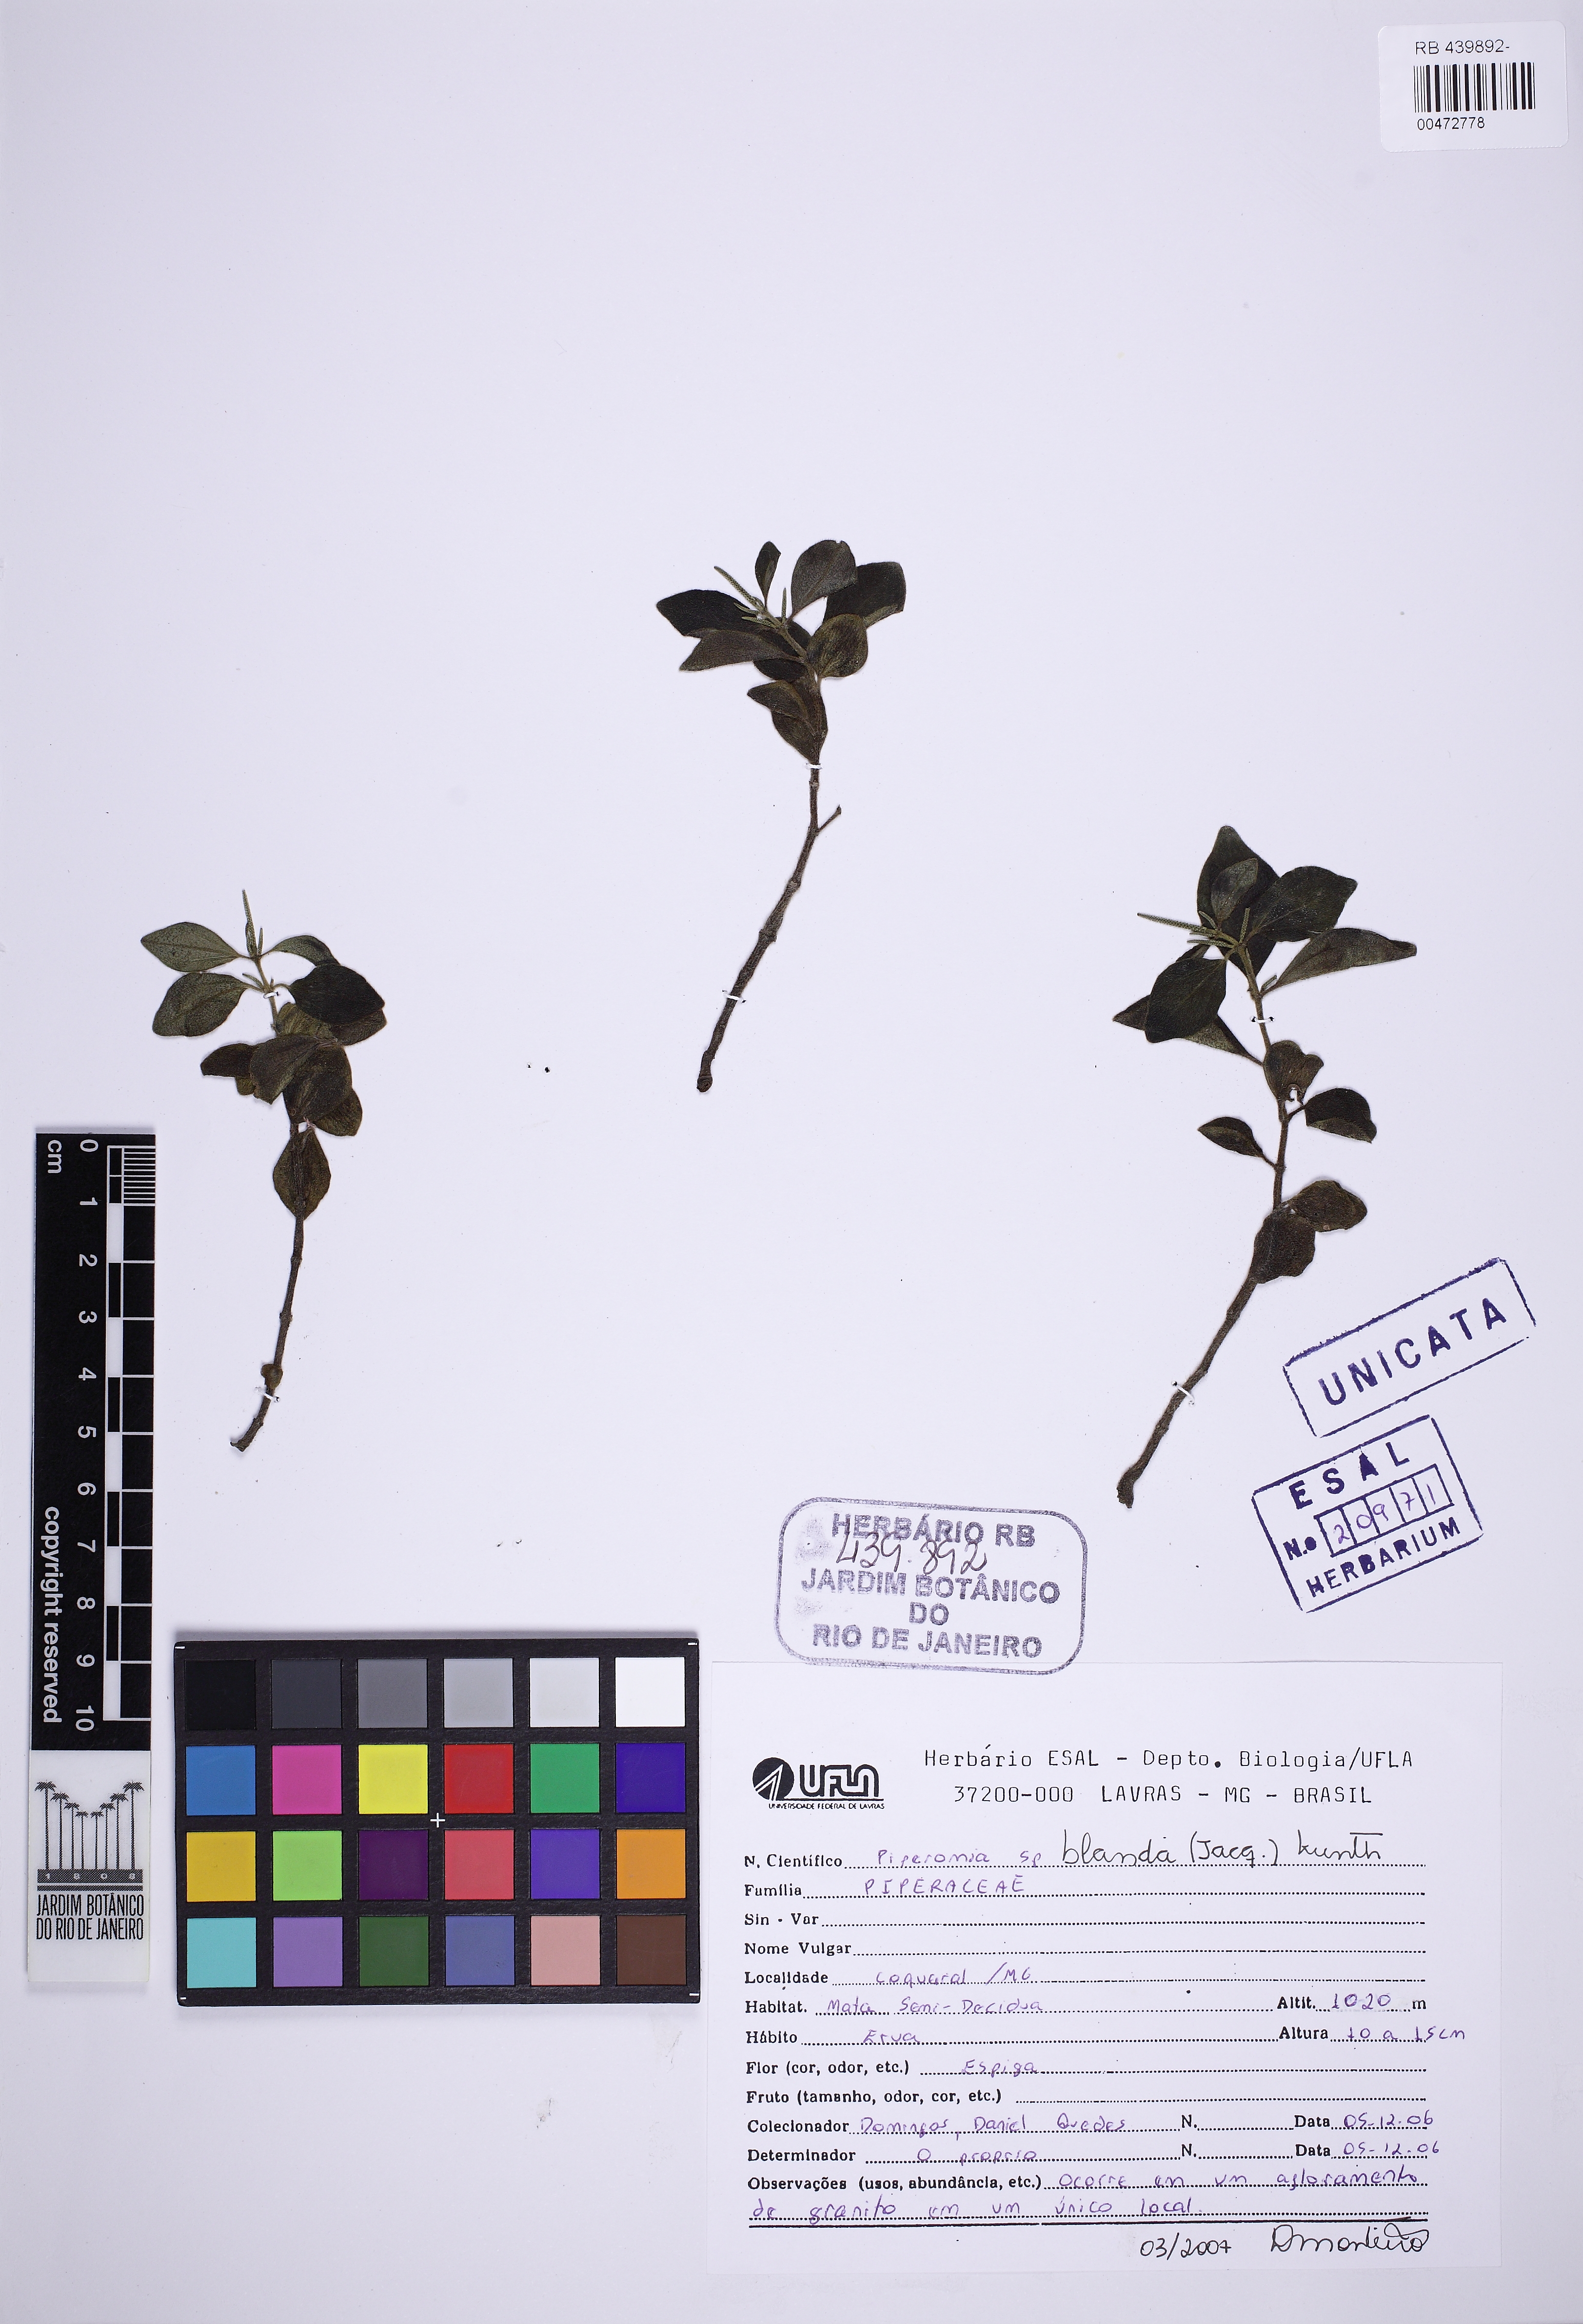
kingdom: Plantae
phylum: Tracheophyta
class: Magnoliopsida
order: Piperales
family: Piperaceae
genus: Peperomia
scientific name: Peperomia blanda
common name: Arid-land peperomia
